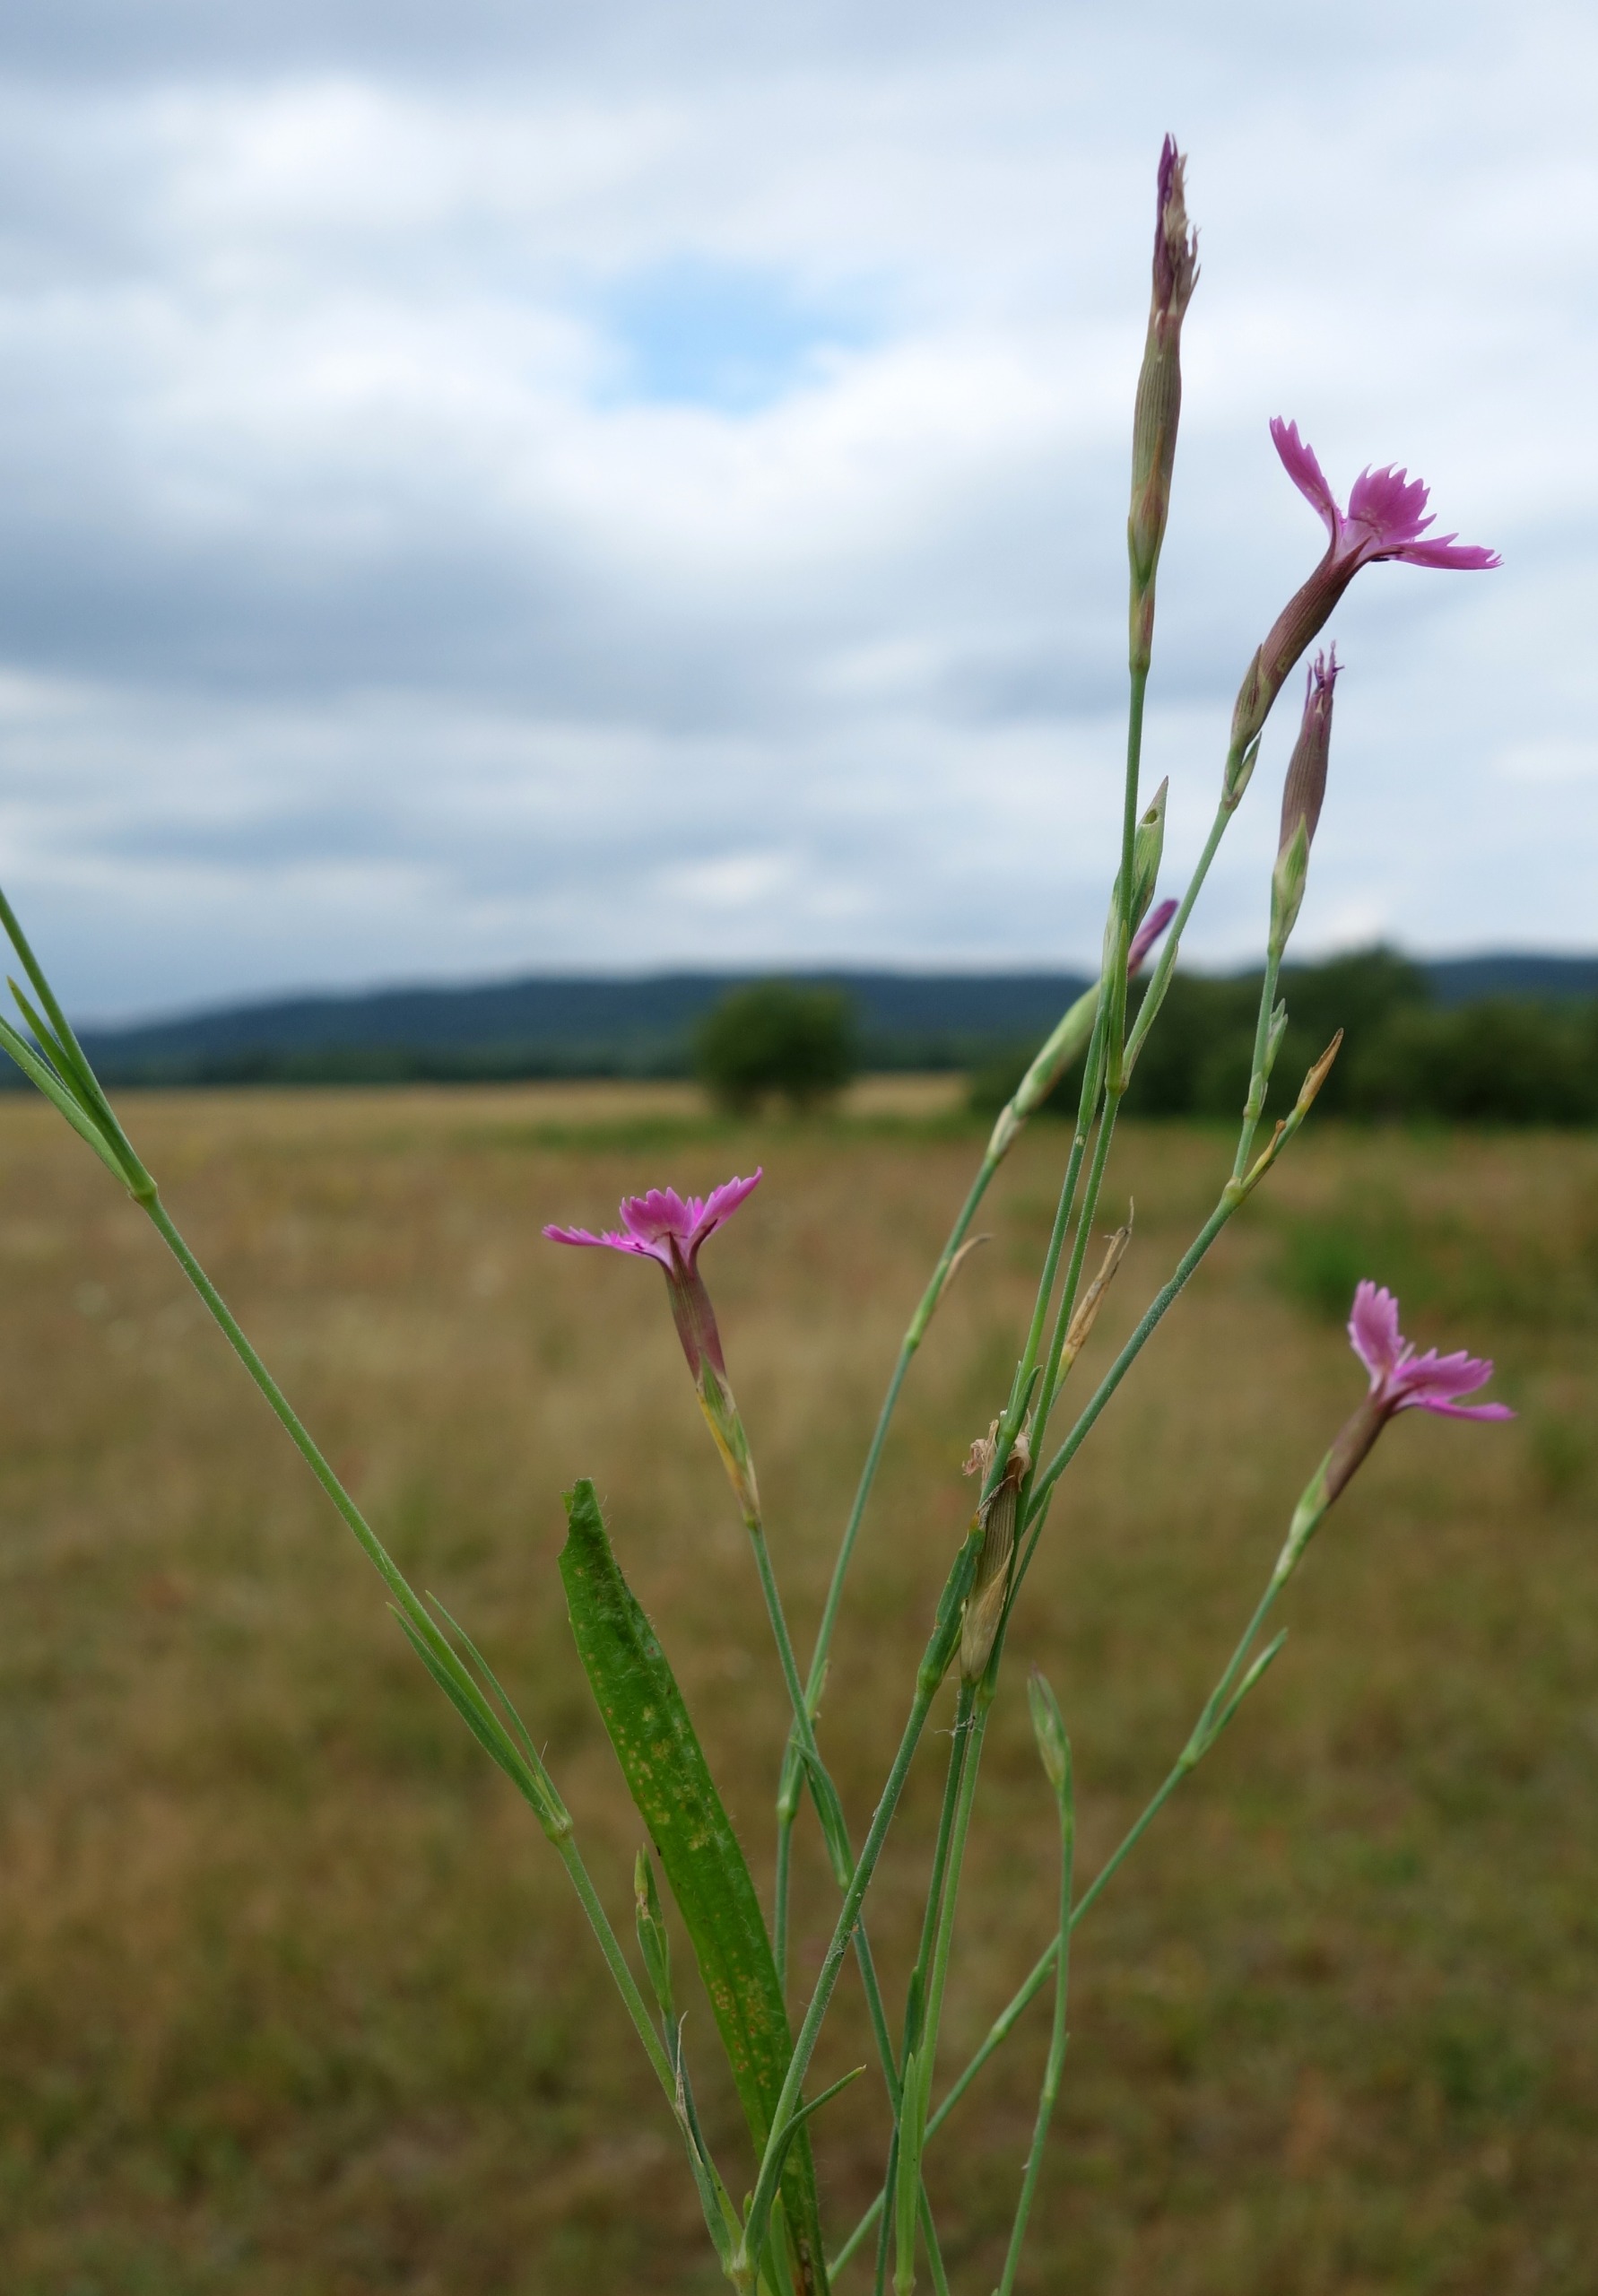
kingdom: Plantae
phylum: Tracheophyta
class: Magnoliopsida
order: Caryophyllales
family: Caryophyllaceae
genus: Dianthus
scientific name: Dianthus deltoides
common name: Bakke-nellike
